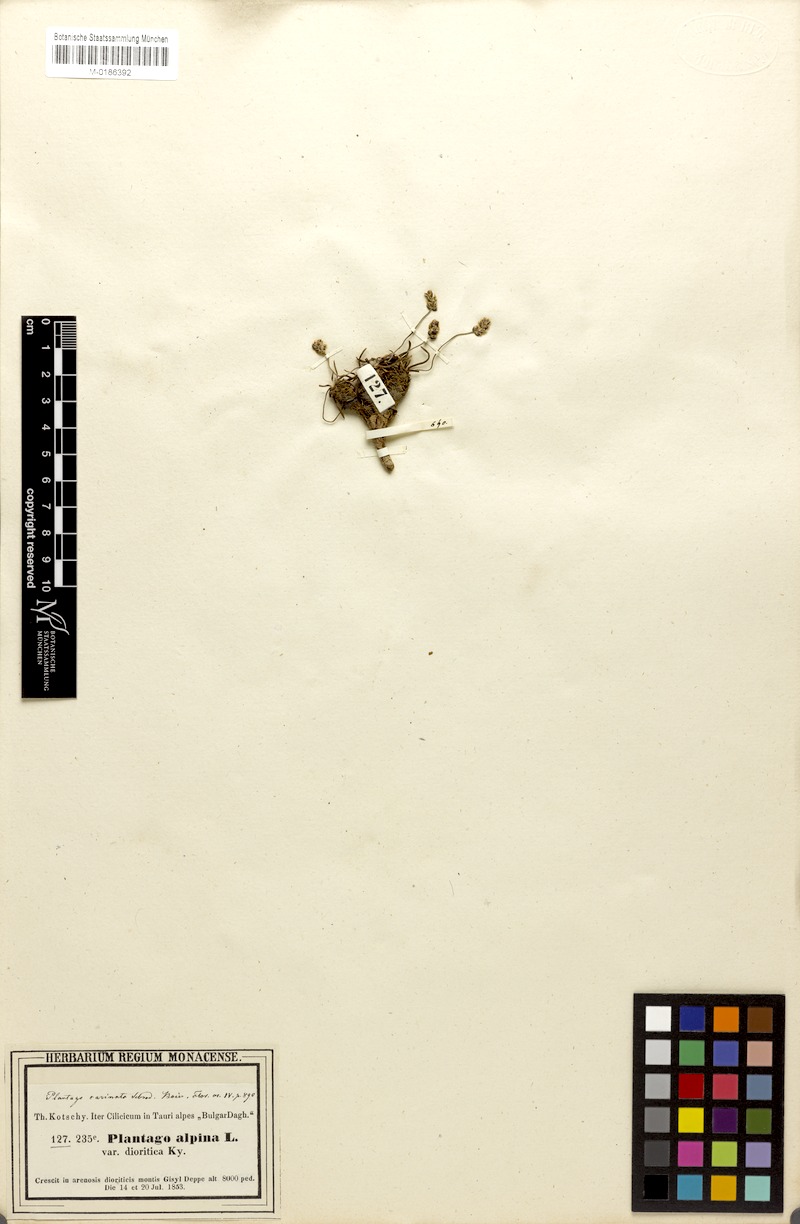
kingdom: Plantae
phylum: Tracheophyta
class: Magnoliopsida
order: Lamiales
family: Plantaginaceae
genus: Plantago
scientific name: Plantago subulata
